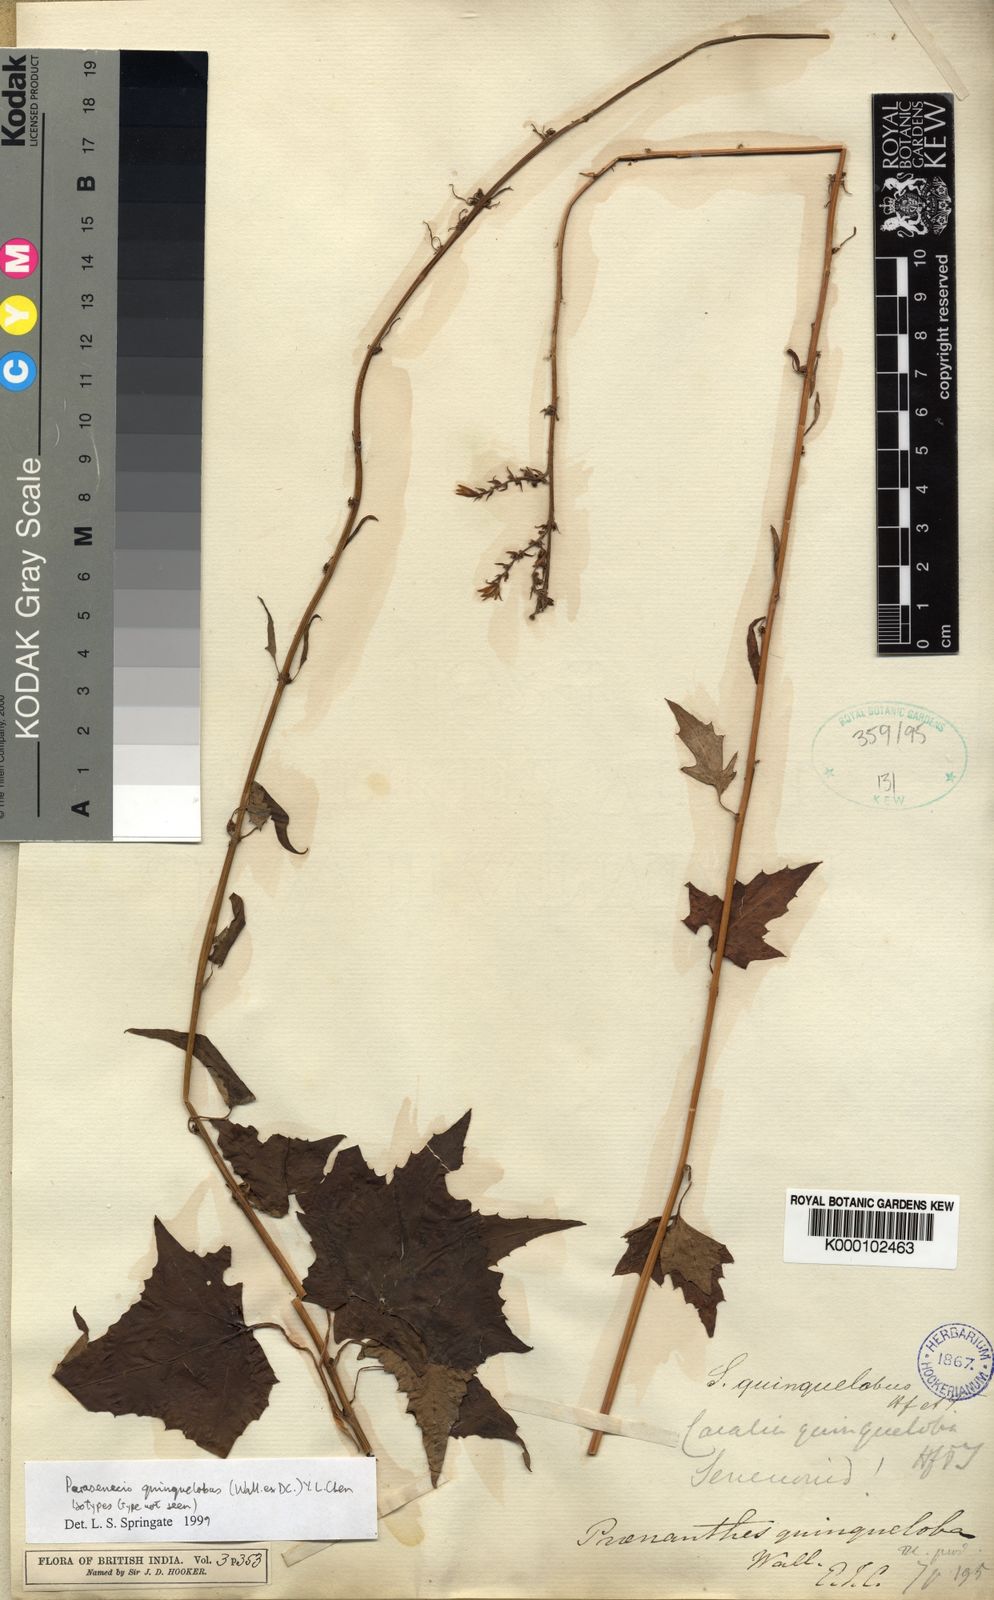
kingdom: Plantae
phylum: Tracheophyta
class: Magnoliopsida
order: Asterales
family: Asteraceae
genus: Parasenecio
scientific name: Parasenecio quinquelobus
